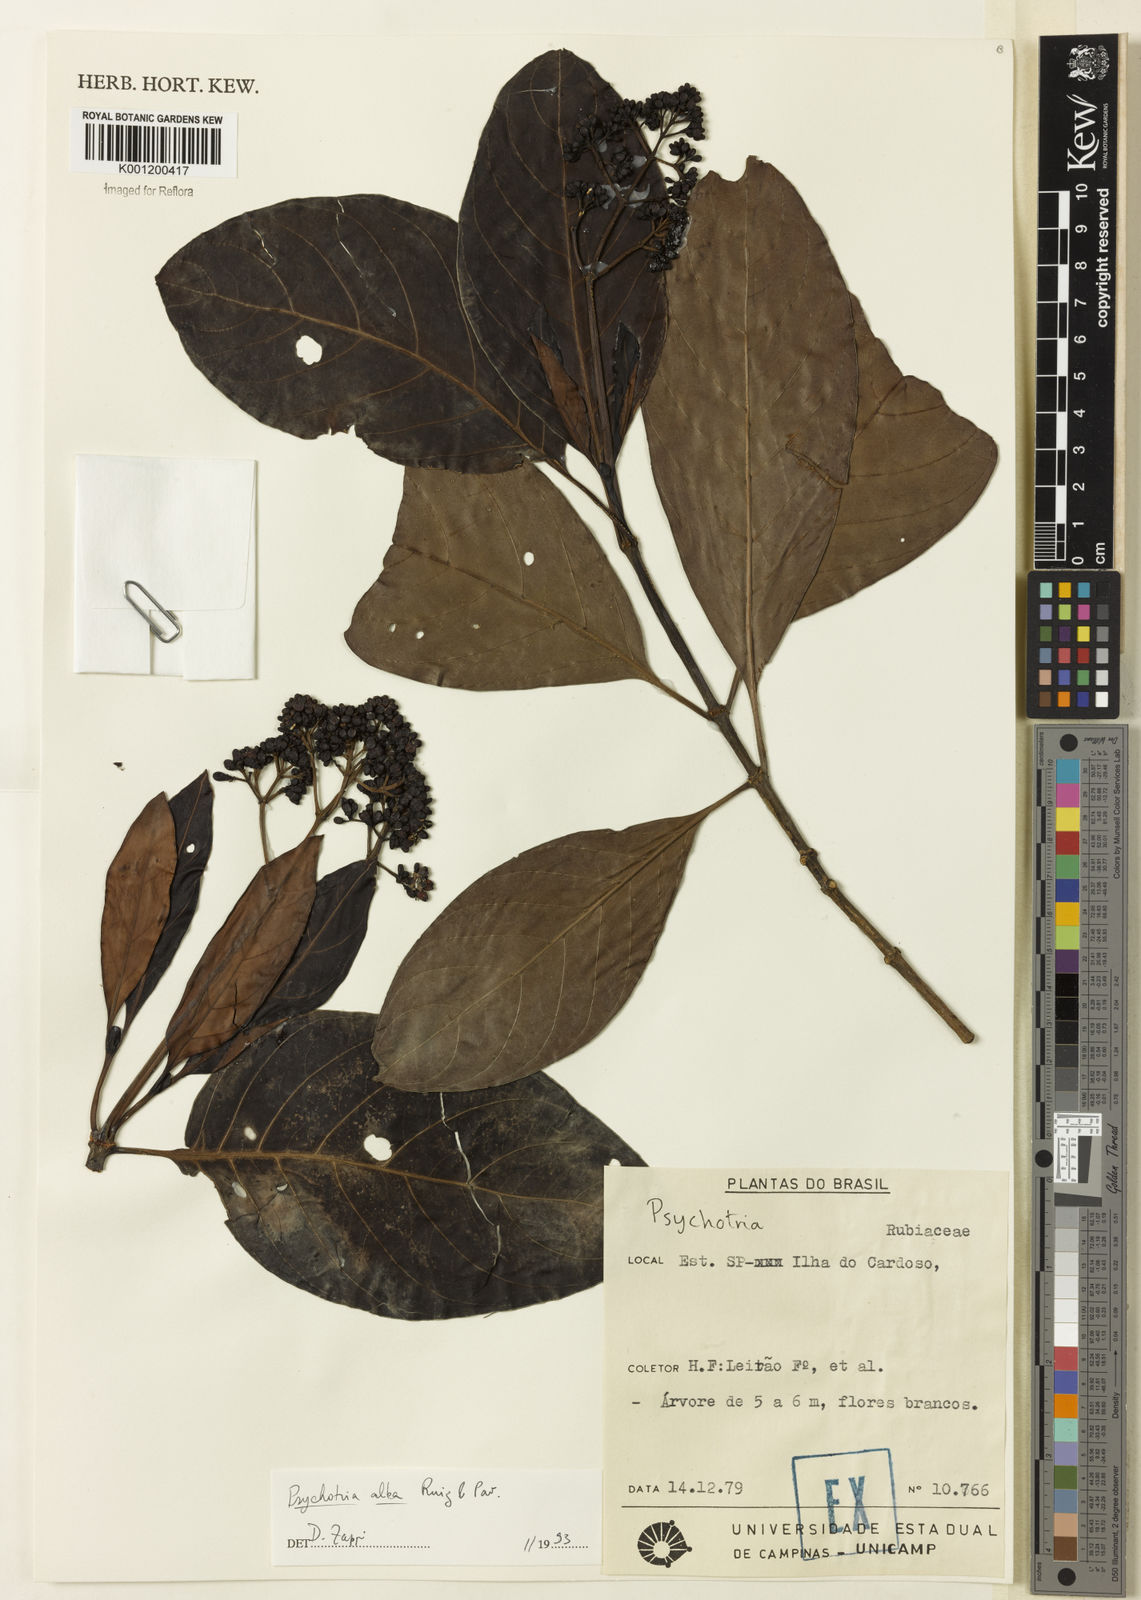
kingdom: Plantae
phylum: Tracheophyta
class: Magnoliopsida
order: Gentianales
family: Rubiaceae
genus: Psychotria
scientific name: Psychotria carthagenensis
